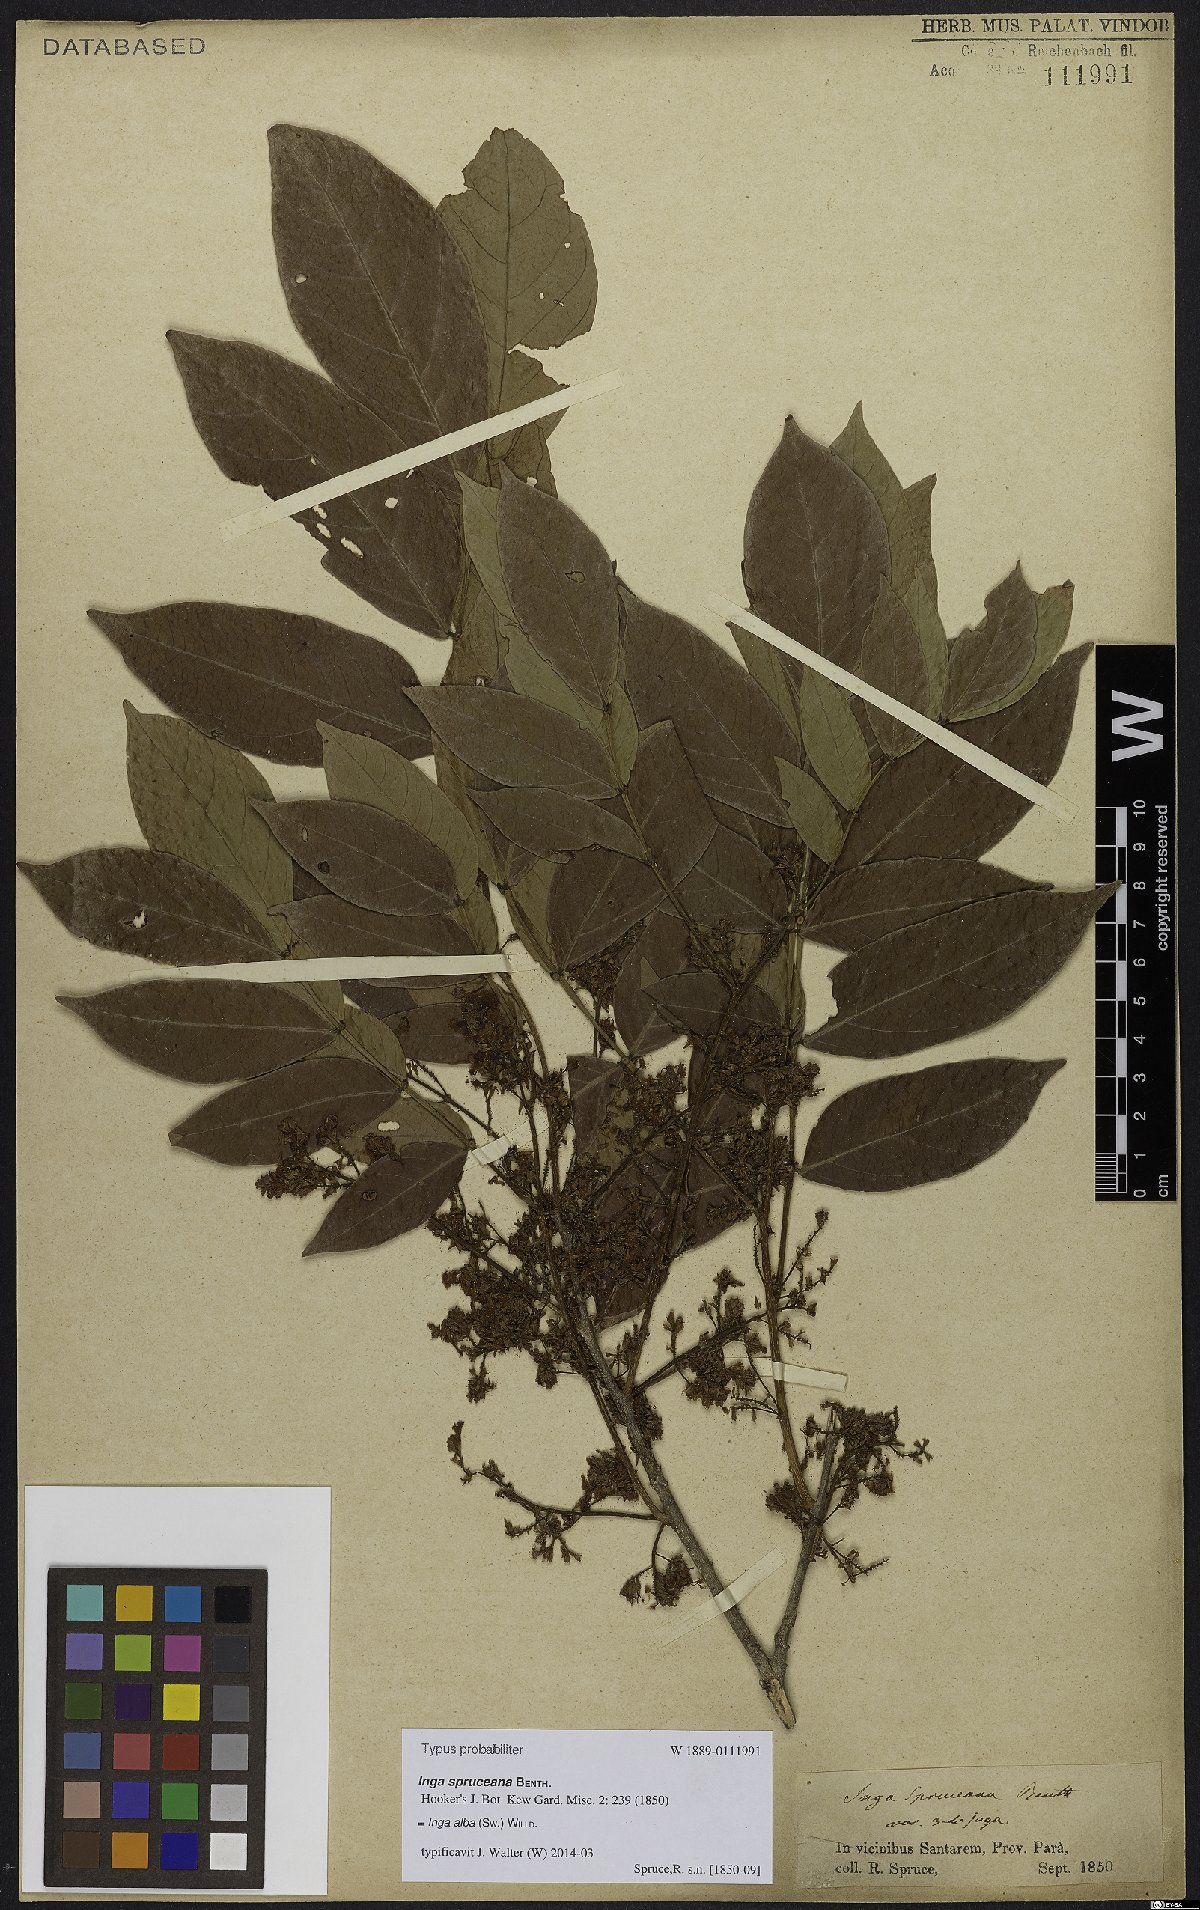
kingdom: Plantae
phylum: Tracheophyta
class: Magnoliopsida
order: Fabales
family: Fabaceae
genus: Inga
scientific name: Inga alba
